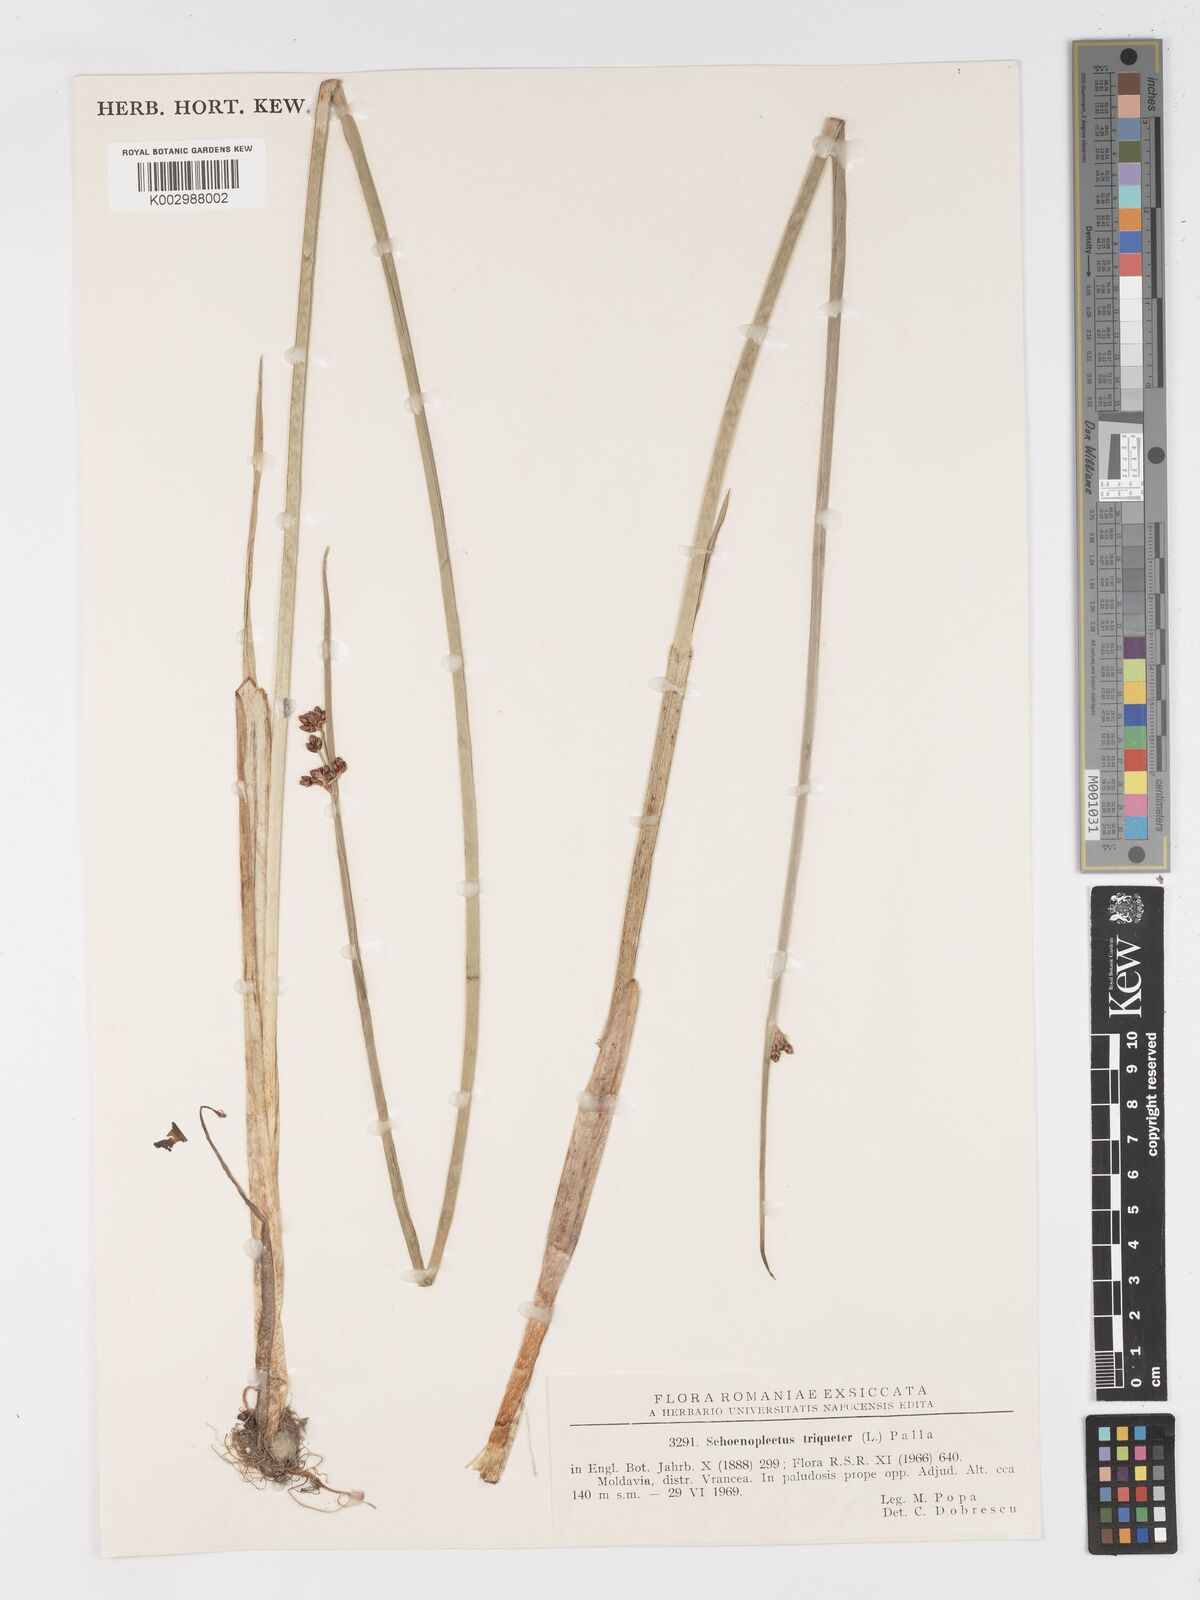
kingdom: Plantae
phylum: Tracheophyta
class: Liliopsida
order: Poales
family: Cyperaceae
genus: Schoenoplectus
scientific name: Schoenoplectus triqueter
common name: Triangular club-rush
